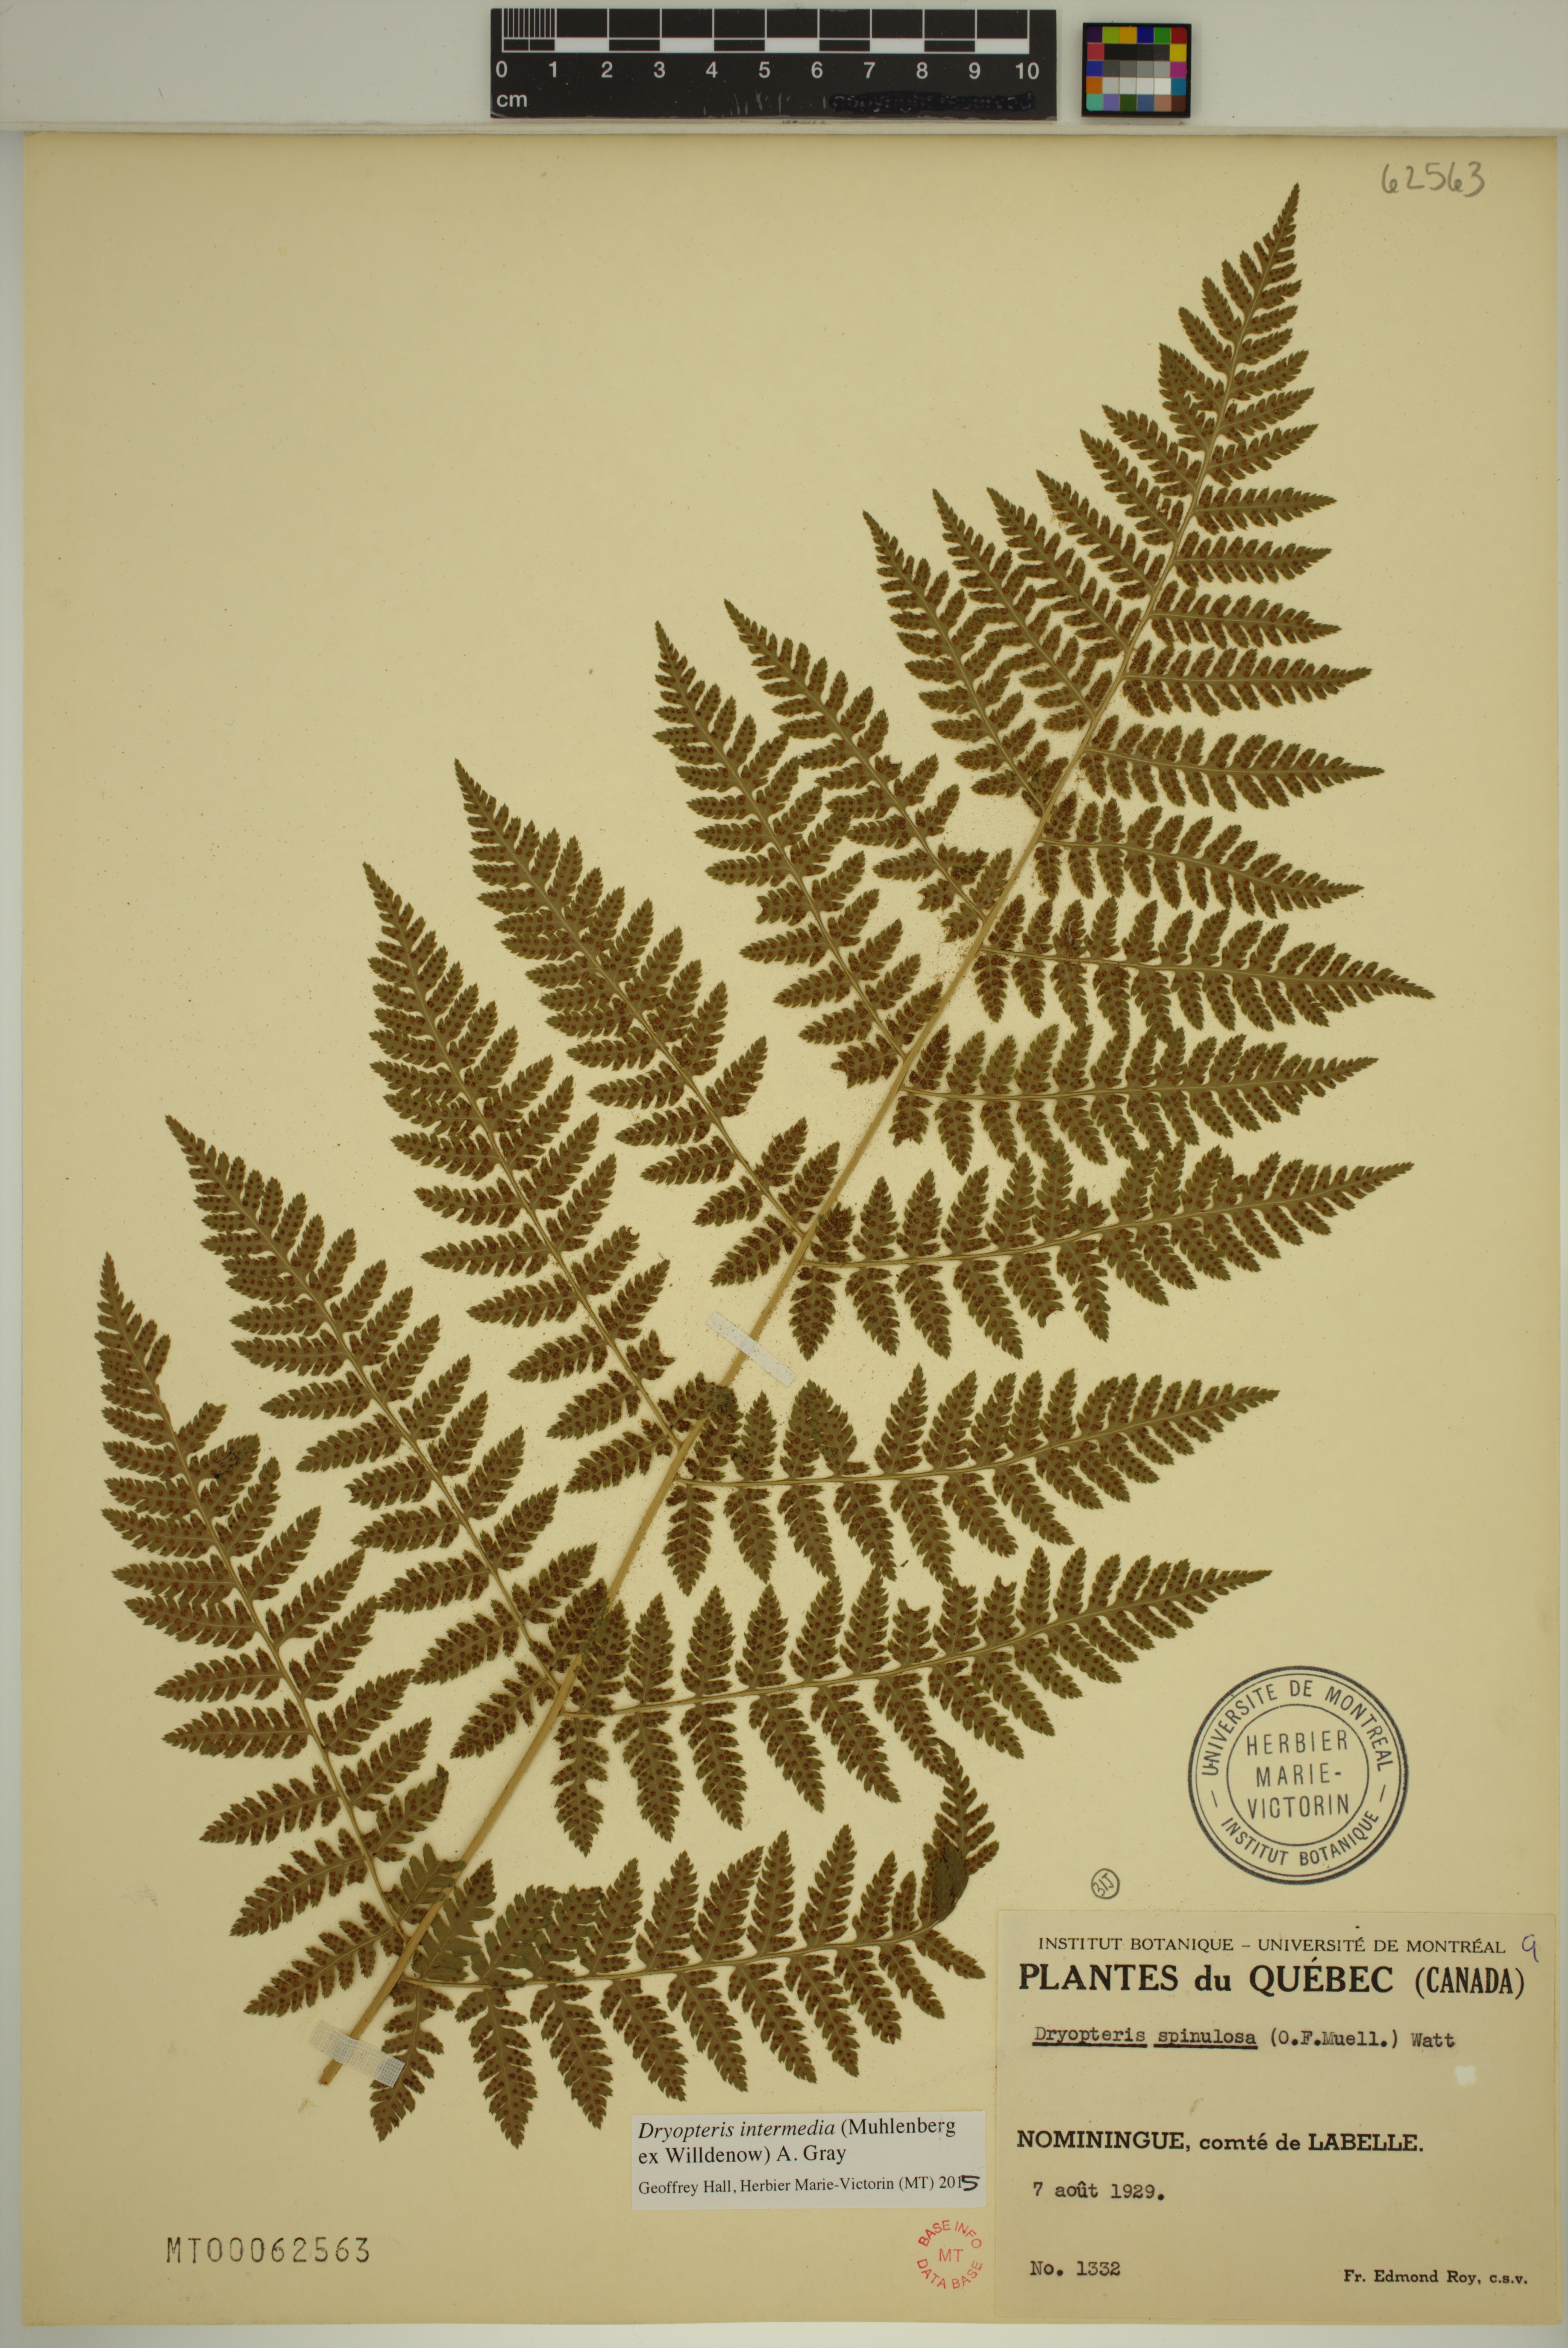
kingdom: Plantae
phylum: Tracheophyta
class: Polypodiopsida
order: Polypodiales
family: Dryopteridaceae
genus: Dryopteris
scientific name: Dryopteris intermedia
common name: Evergreen wood fern
